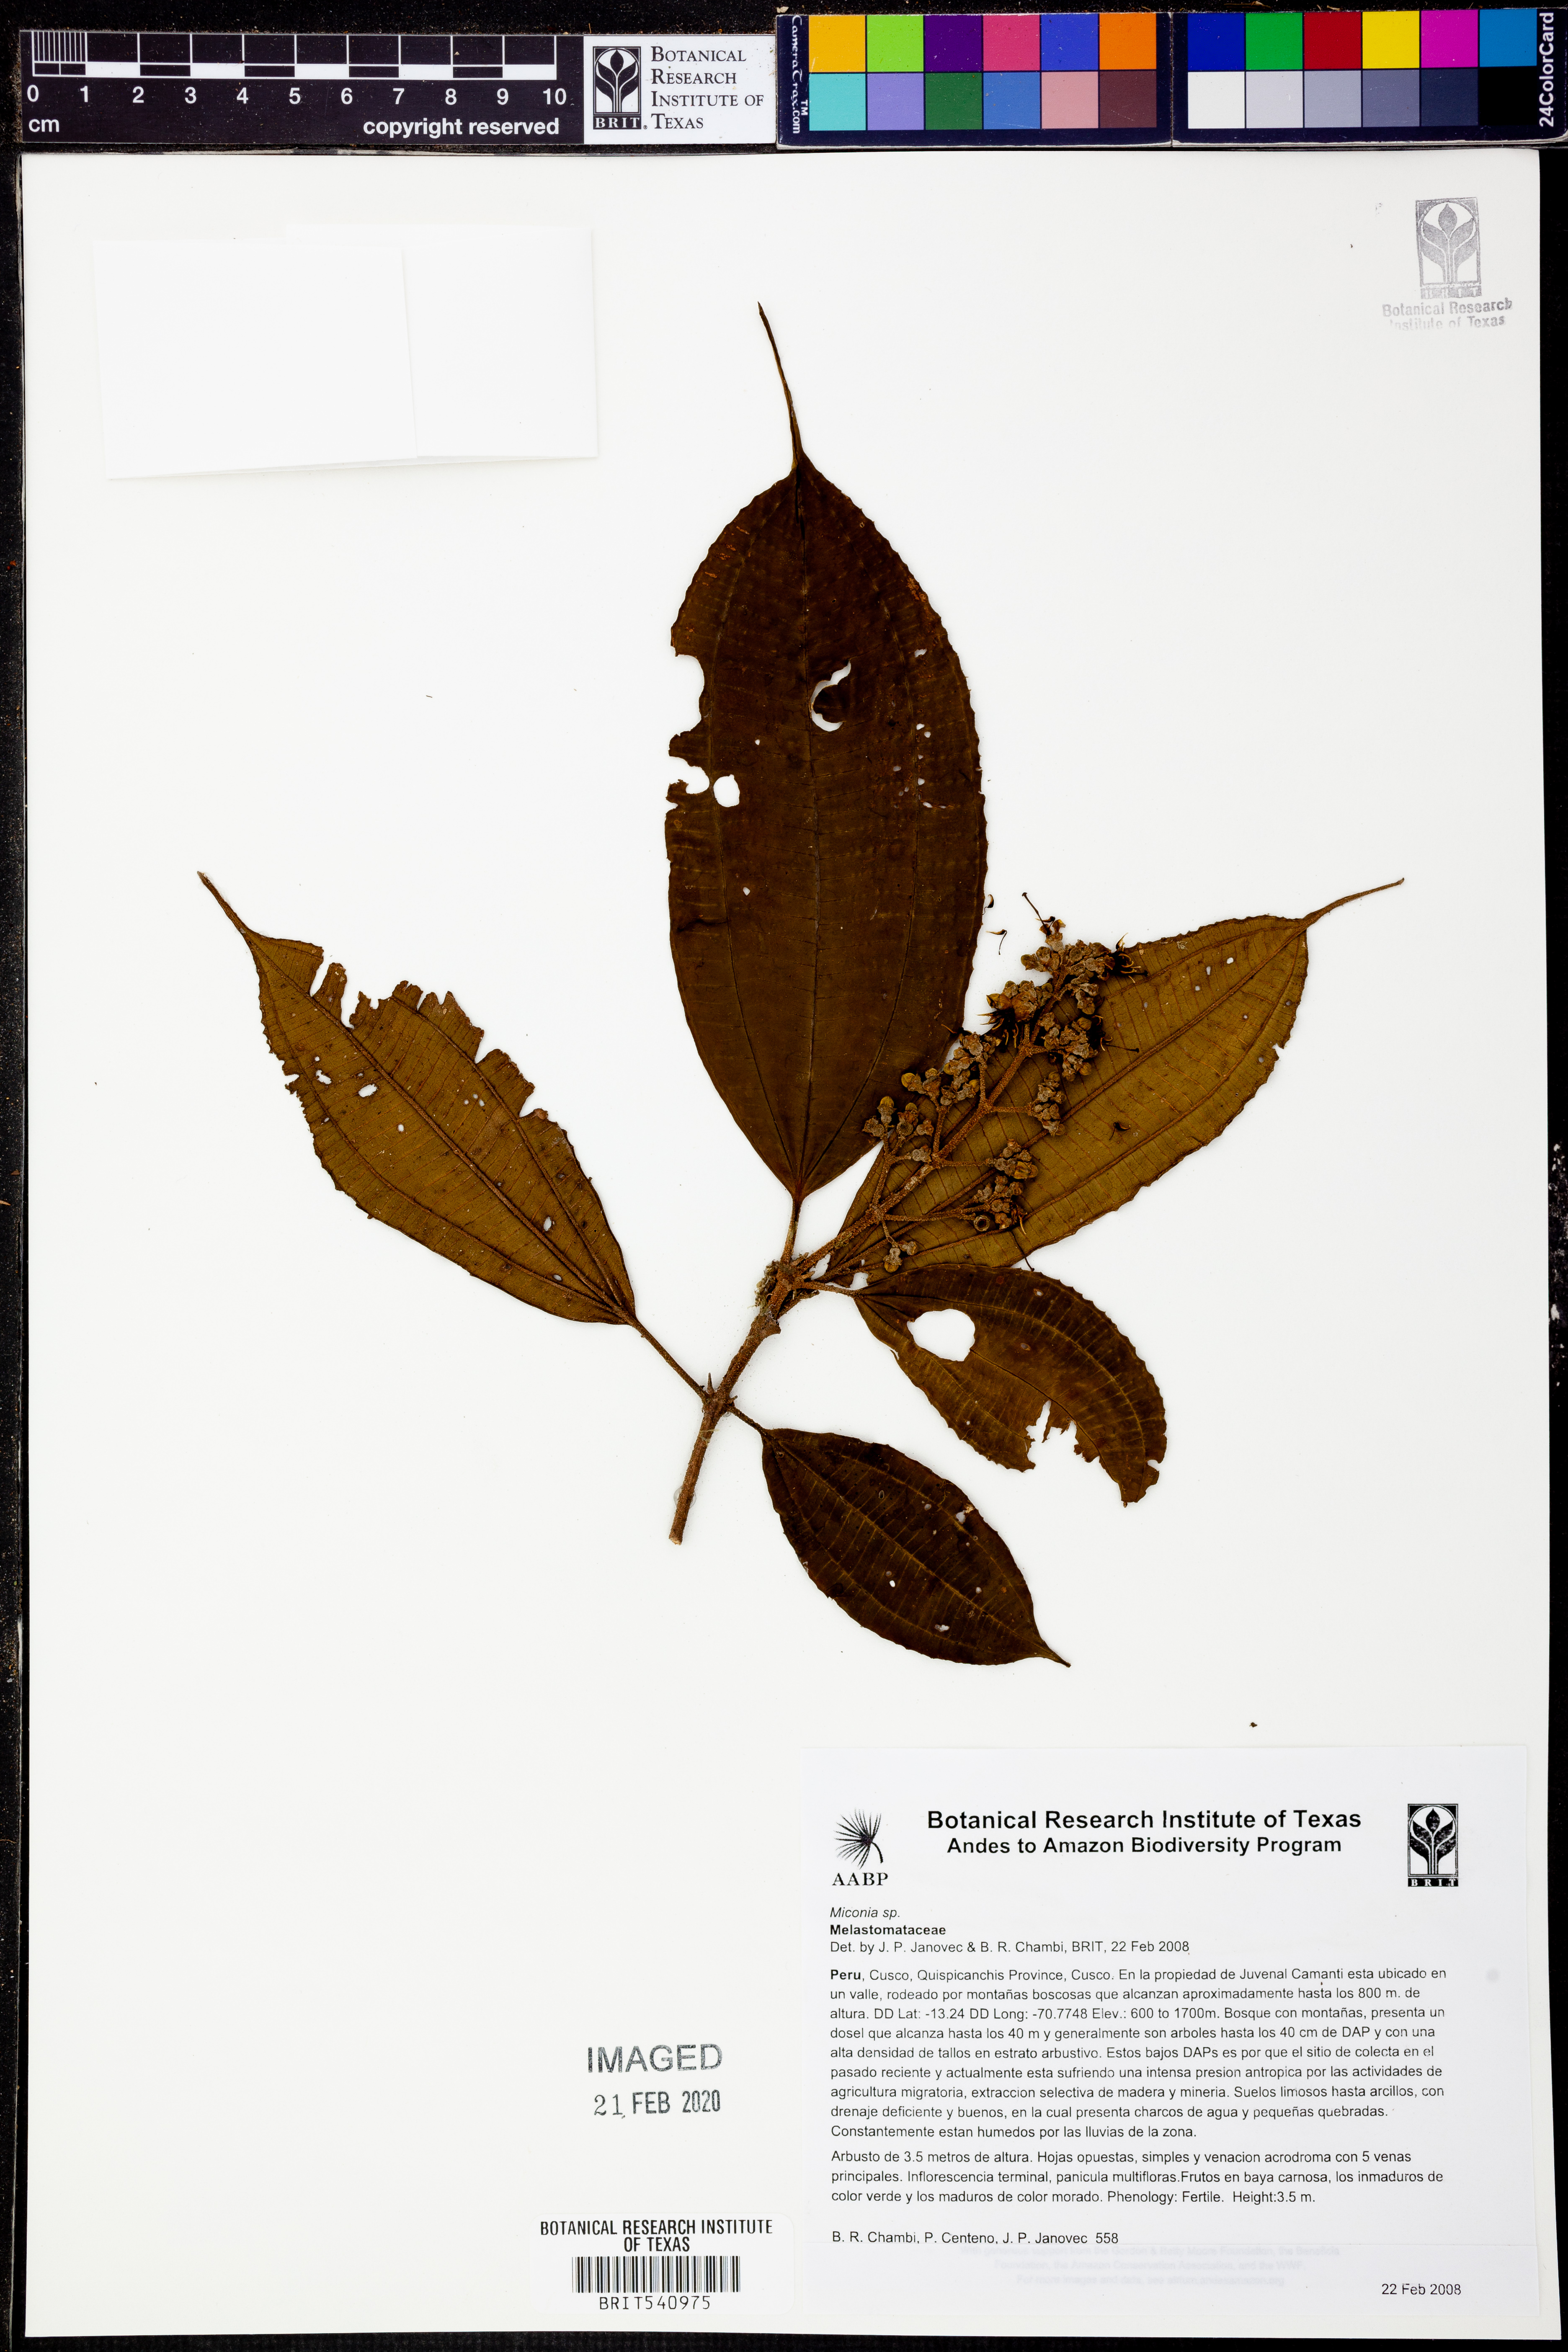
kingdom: Plantae
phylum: Tracheophyta
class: Magnoliopsida
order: Myrtales
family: Melastomataceae
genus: Miconia
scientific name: Miconia
